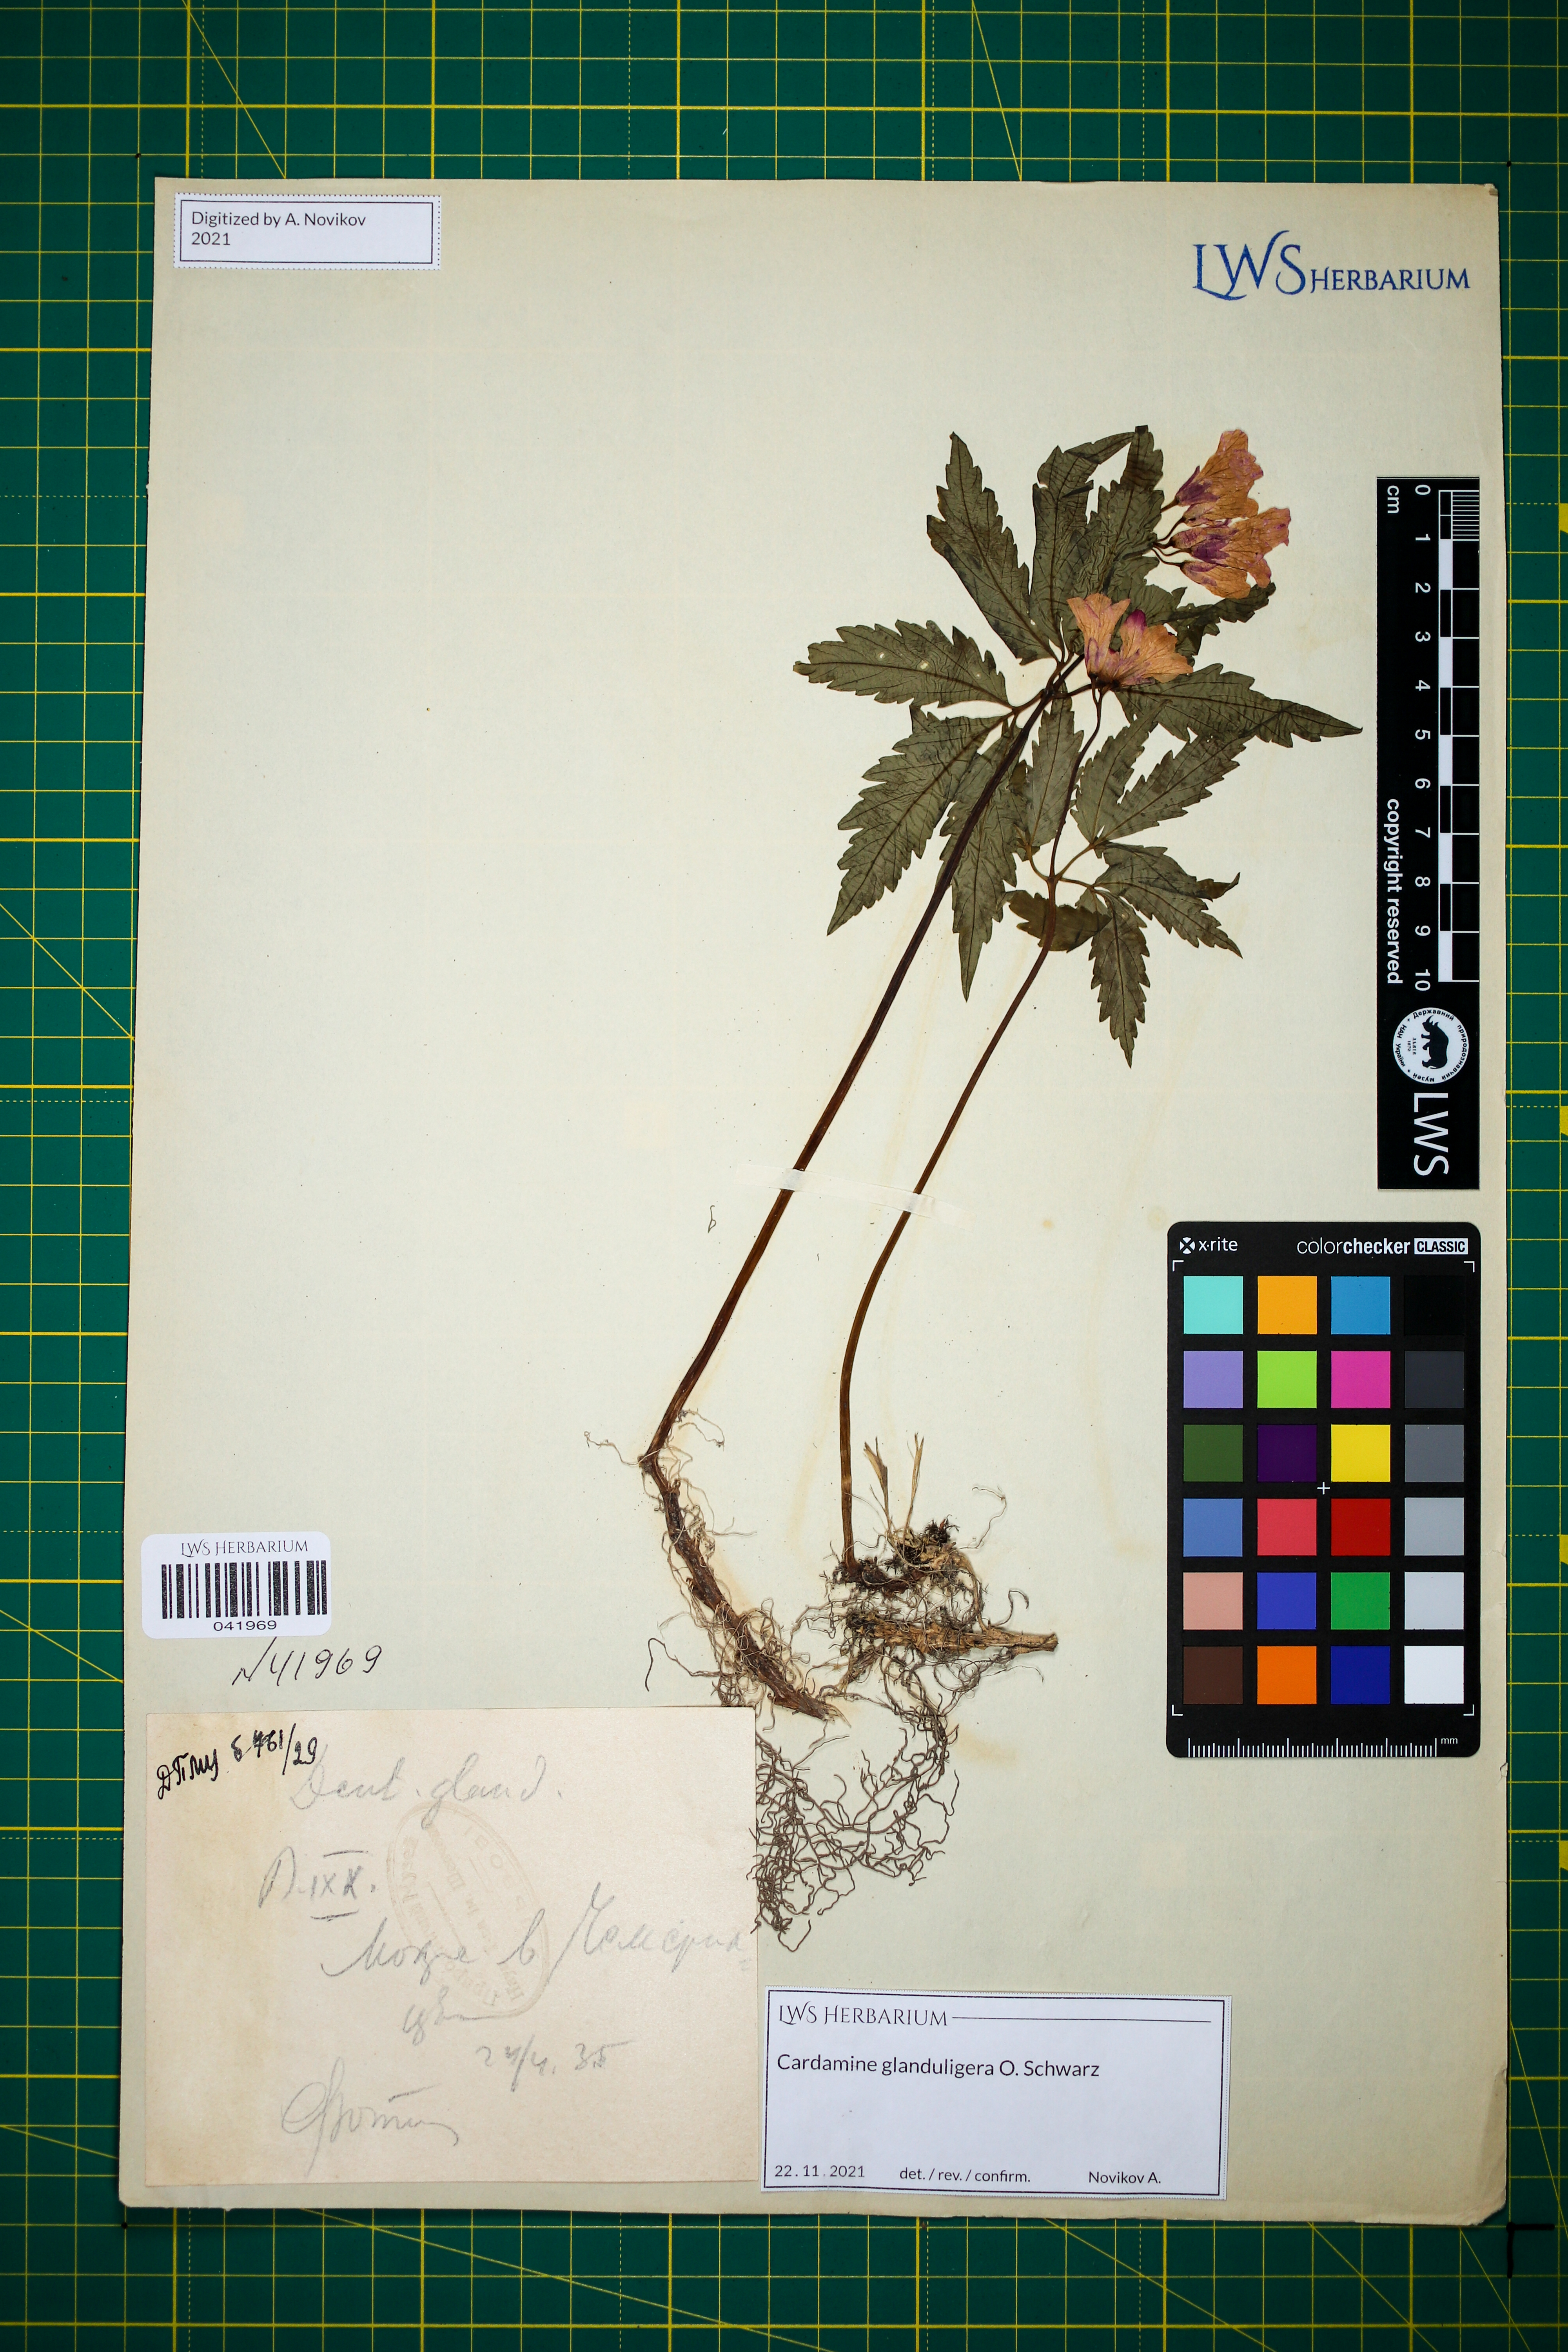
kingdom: Plantae
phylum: Tracheophyta
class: Magnoliopsida
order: Brassicales
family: Brassicaceae
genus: Cardamine
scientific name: Cardamine glanduligera
